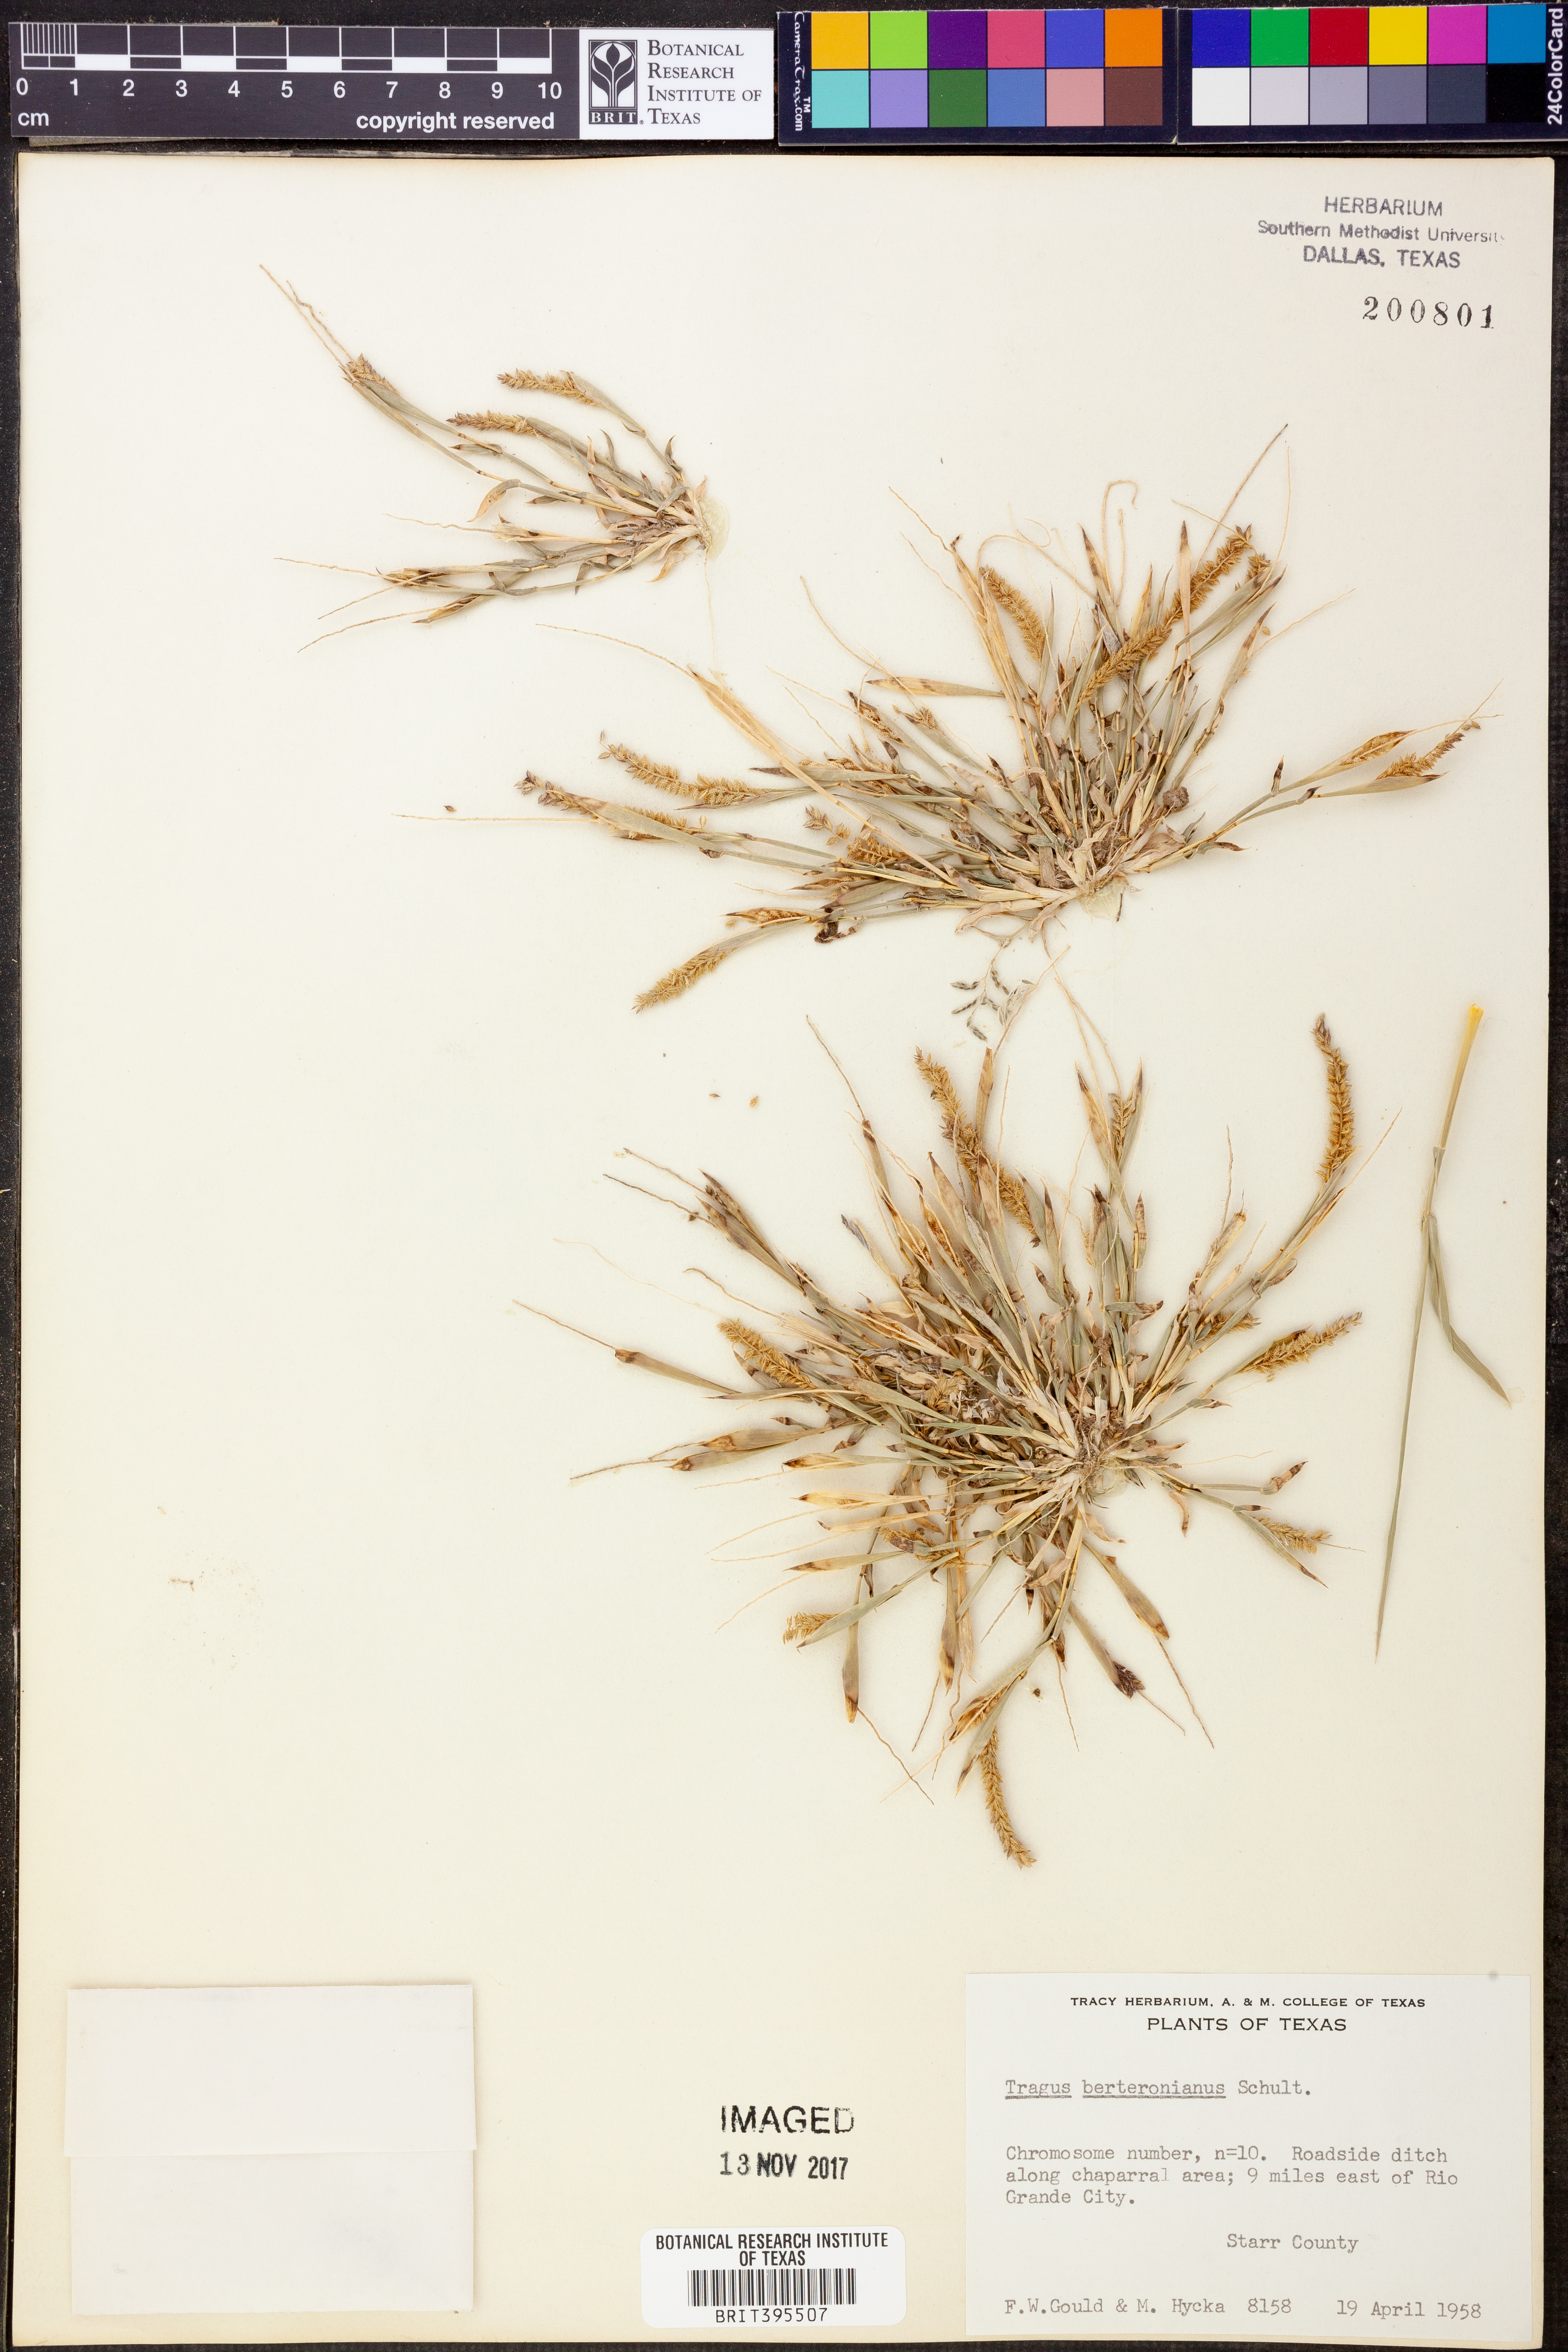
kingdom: Plantae
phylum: Tracheophyta
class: Liliopsida
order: Poales
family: Poaceae
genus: Tragus
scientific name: Tragus berteronianus
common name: African bur-grass
